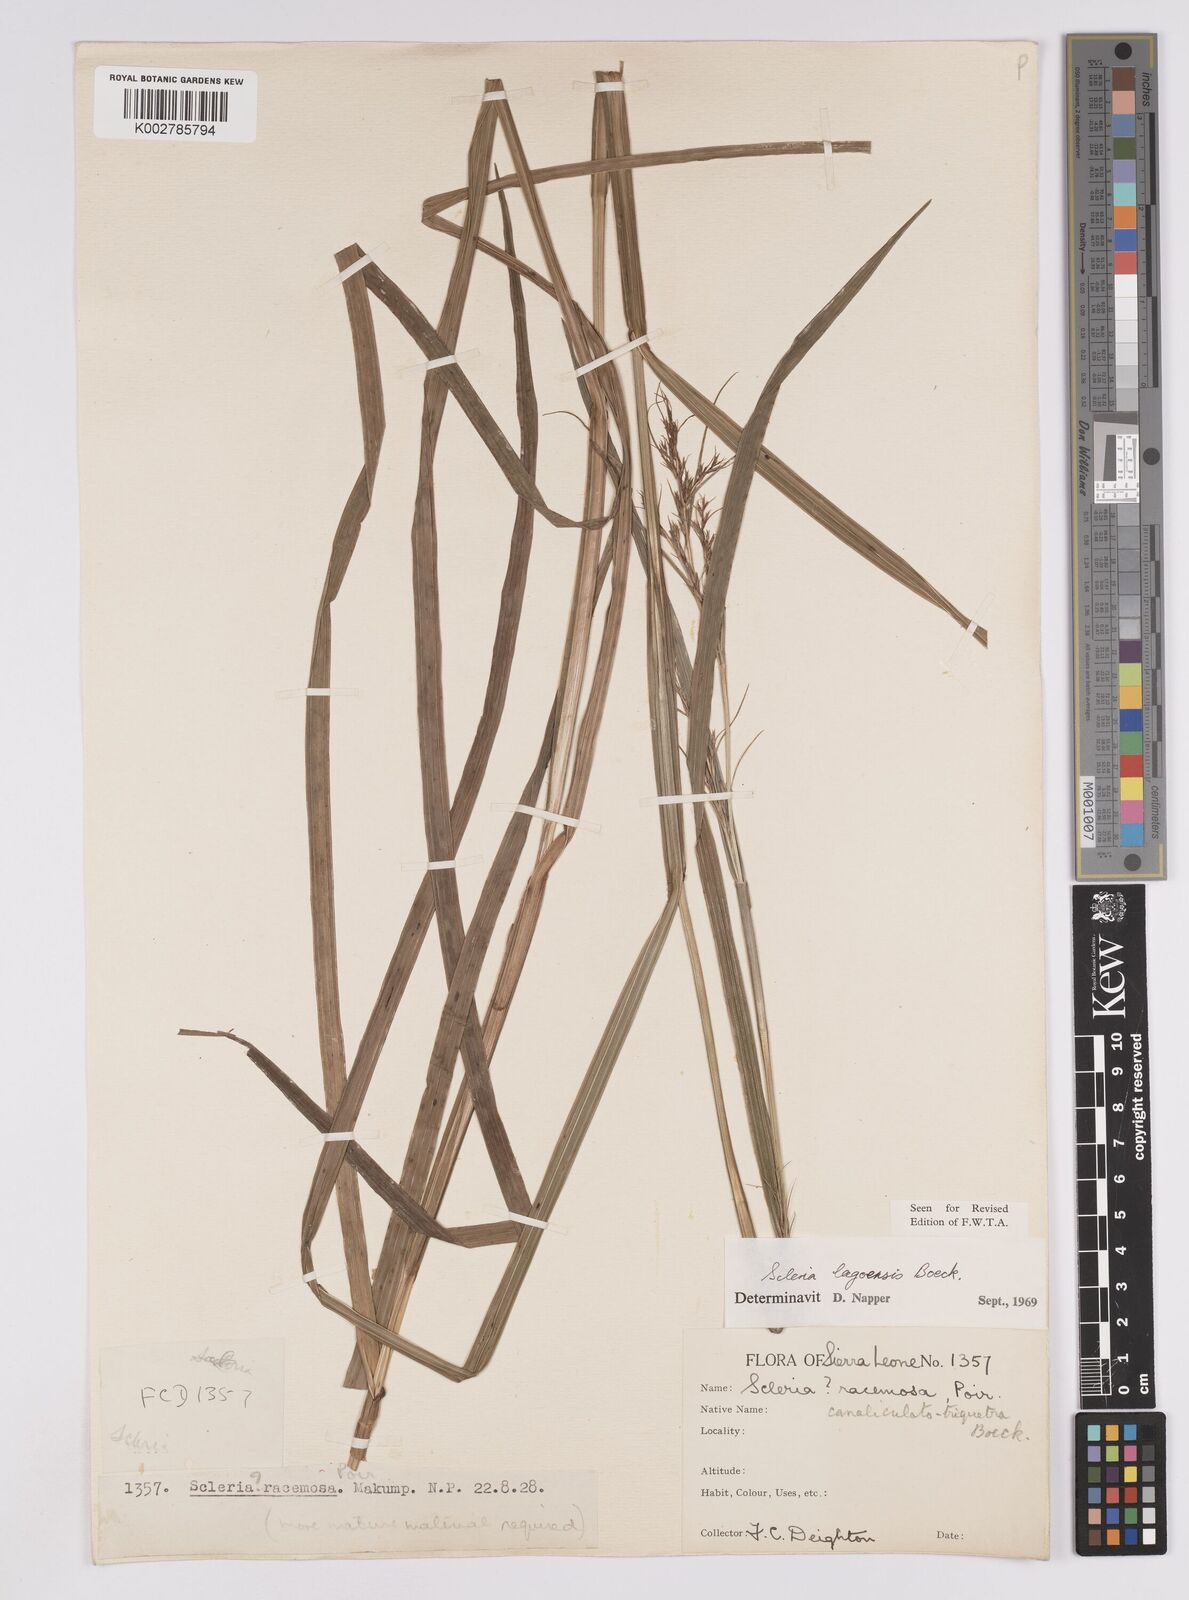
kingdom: Plantae
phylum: Tracheophyta
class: Liliopsida
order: Poales
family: Cyperaceae
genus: Scleria
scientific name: Scleria lagoensis
